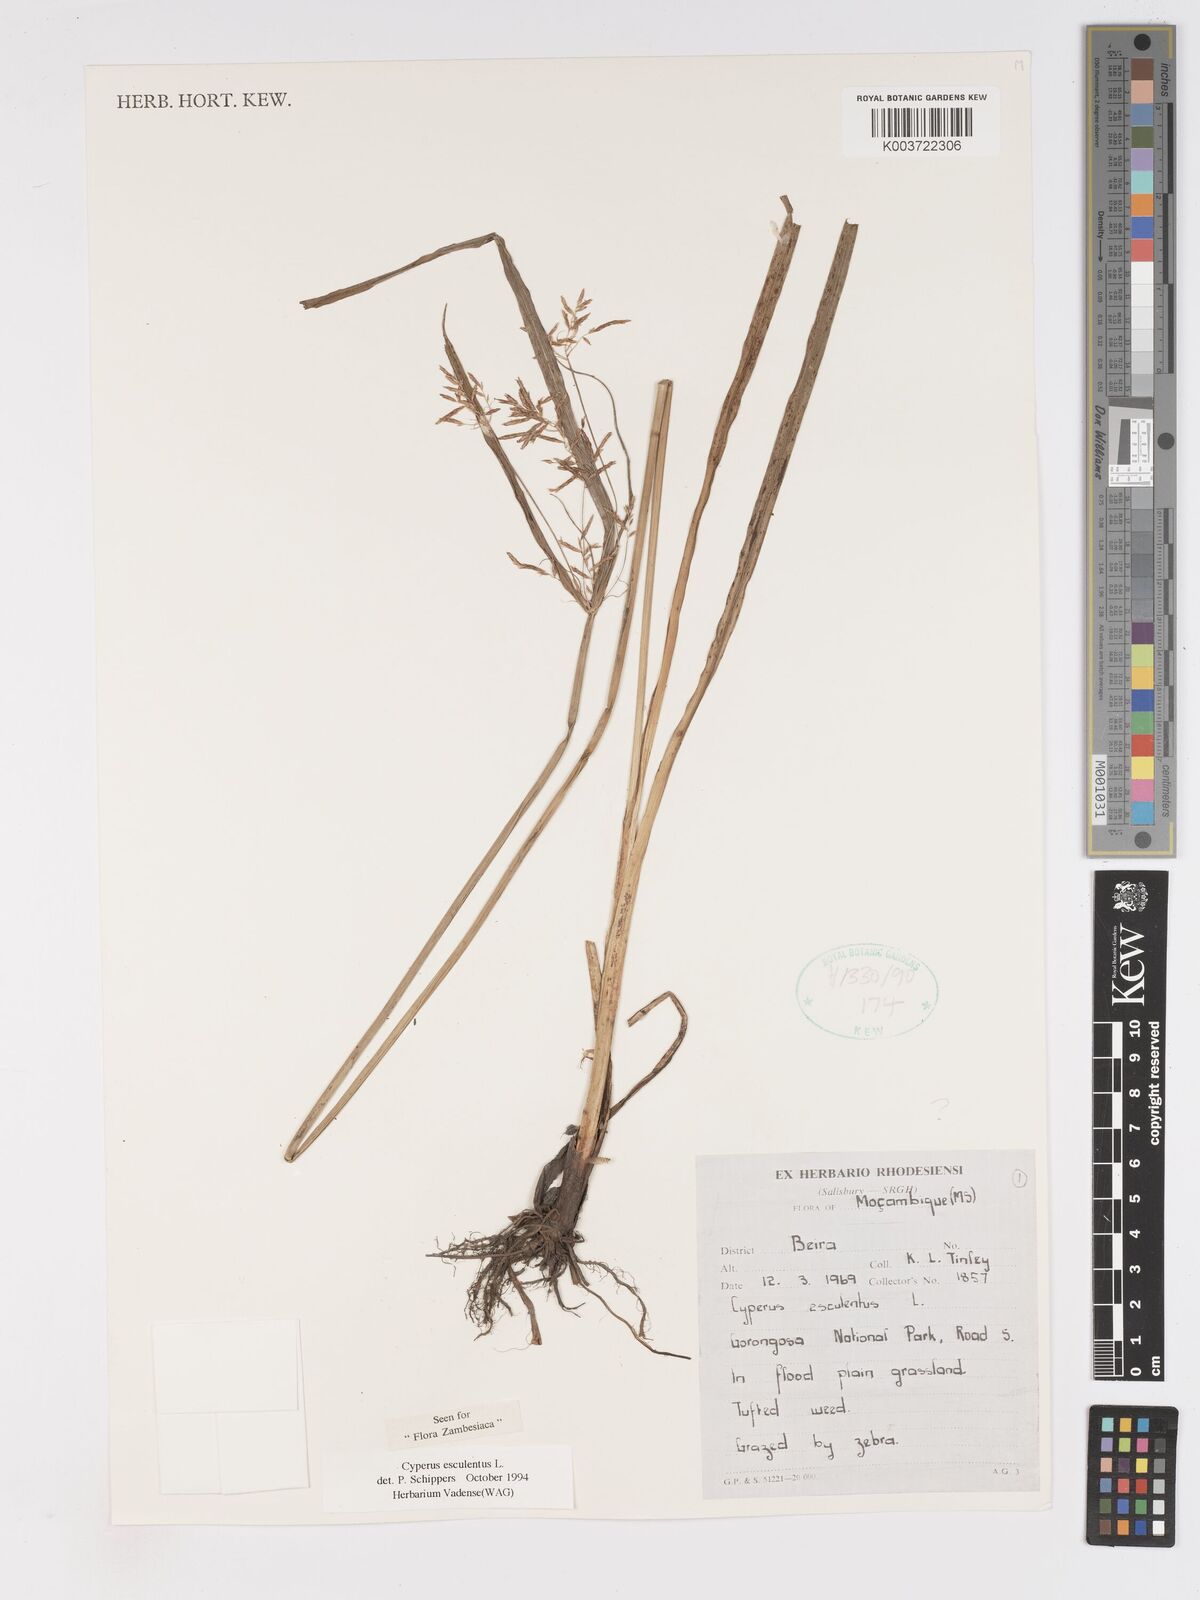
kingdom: Plantae
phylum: Tracheophyta
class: Liliopsida
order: Poales
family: Cyperaceae
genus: Cyperus
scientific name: Cyperus esculentus
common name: Yellow nutsedge
